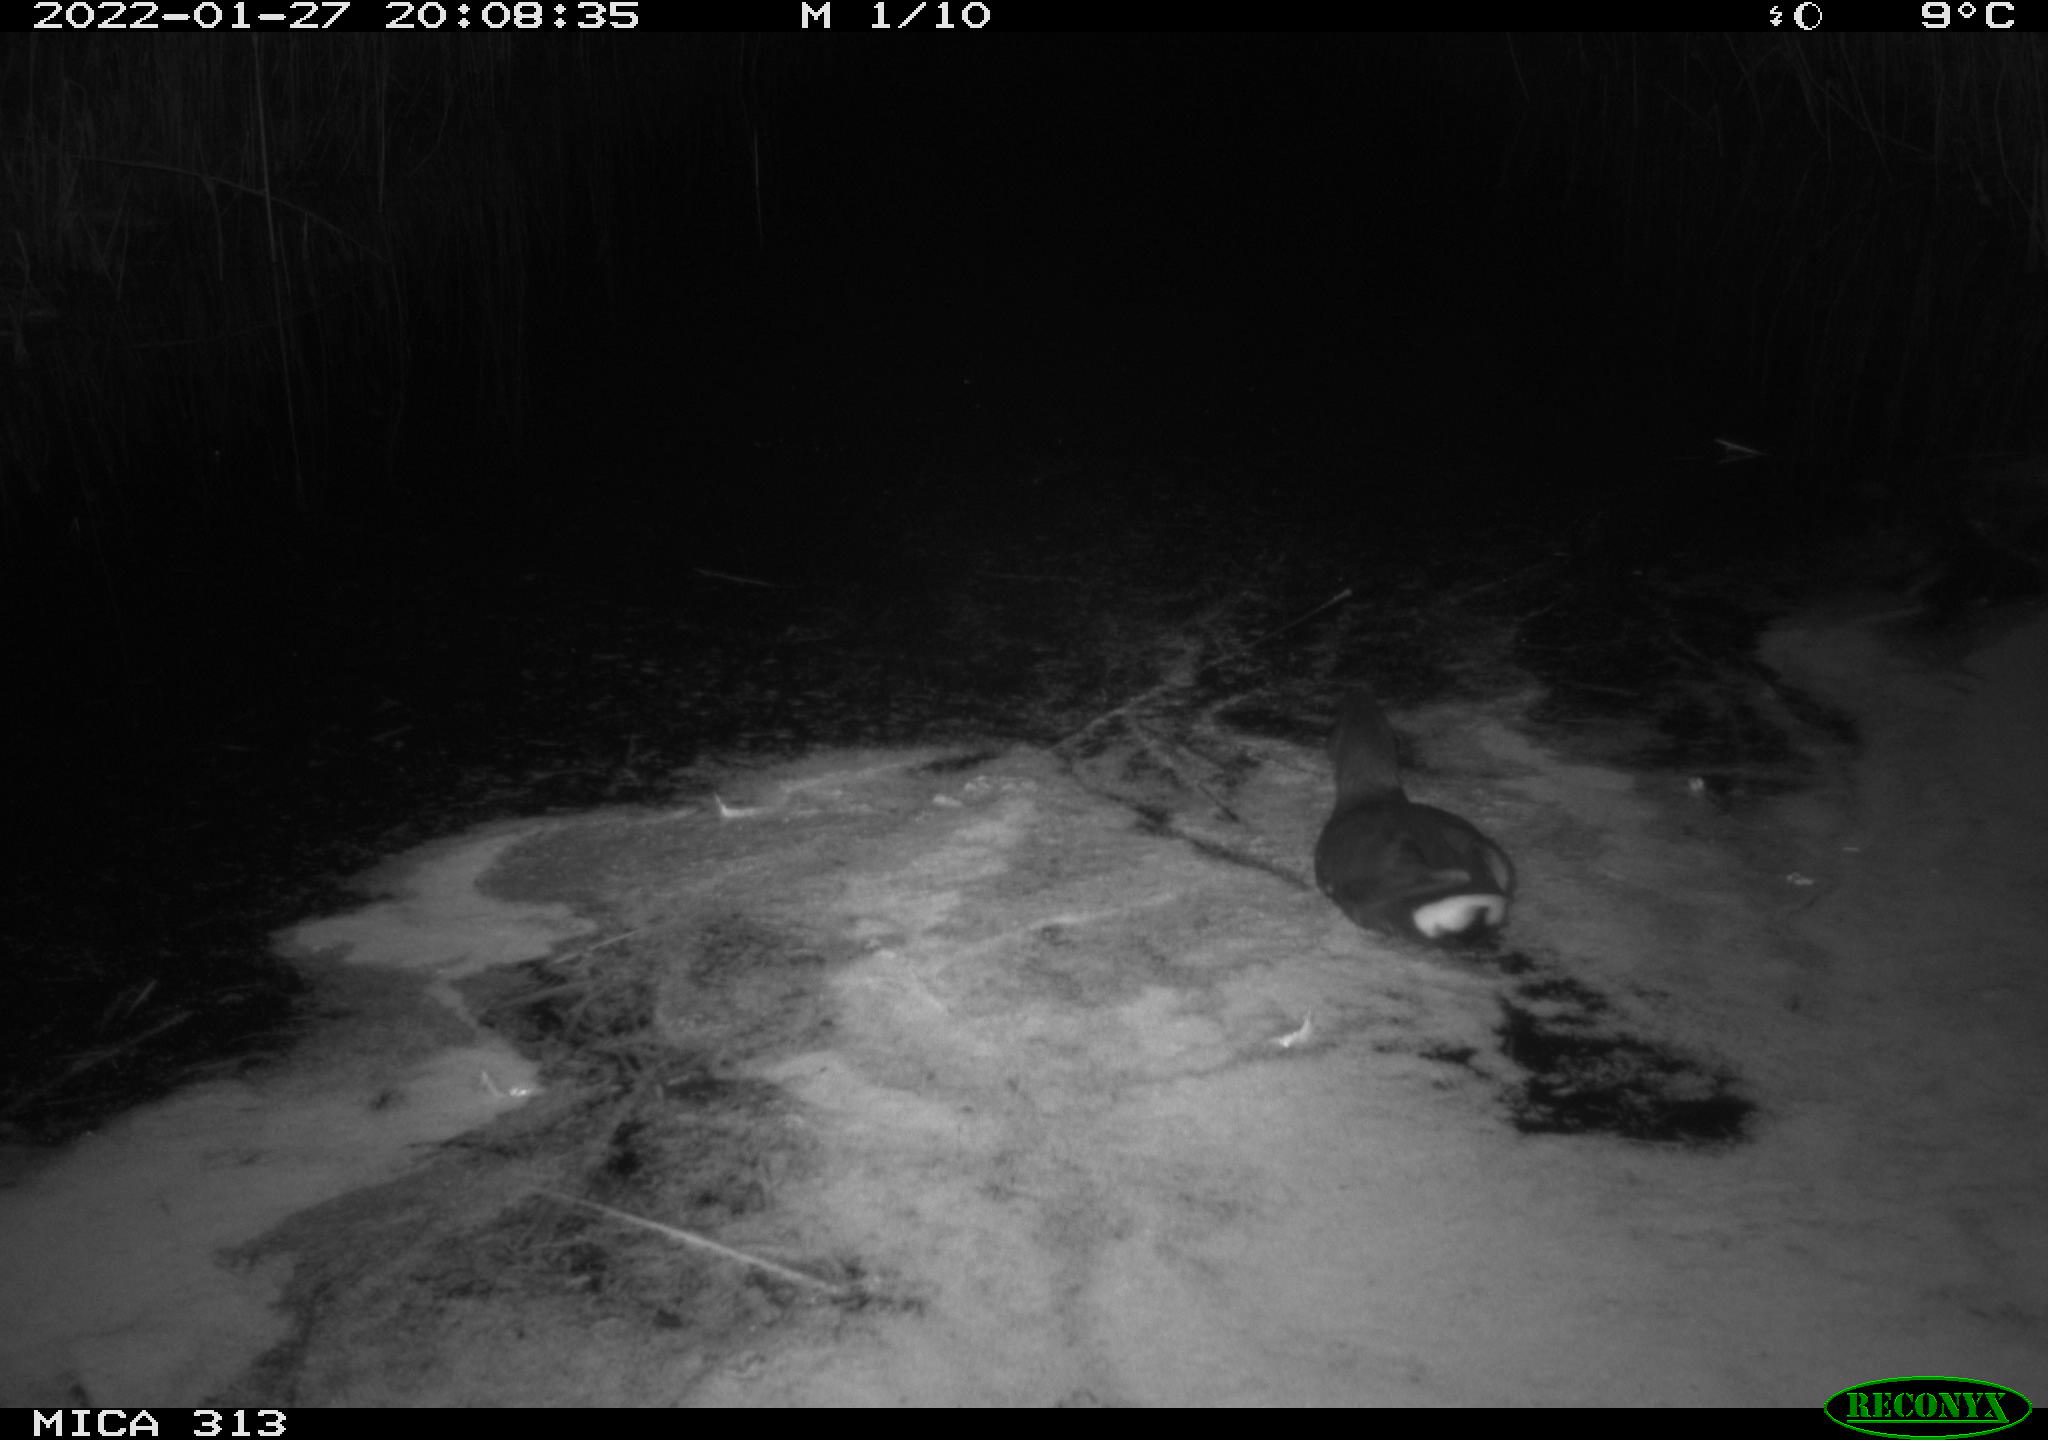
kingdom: Animalia
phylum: Chordata
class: Aves
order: Gruiformes
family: Rallidae
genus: Gallinula
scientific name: Gallinula chloropus
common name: Common moorhen
